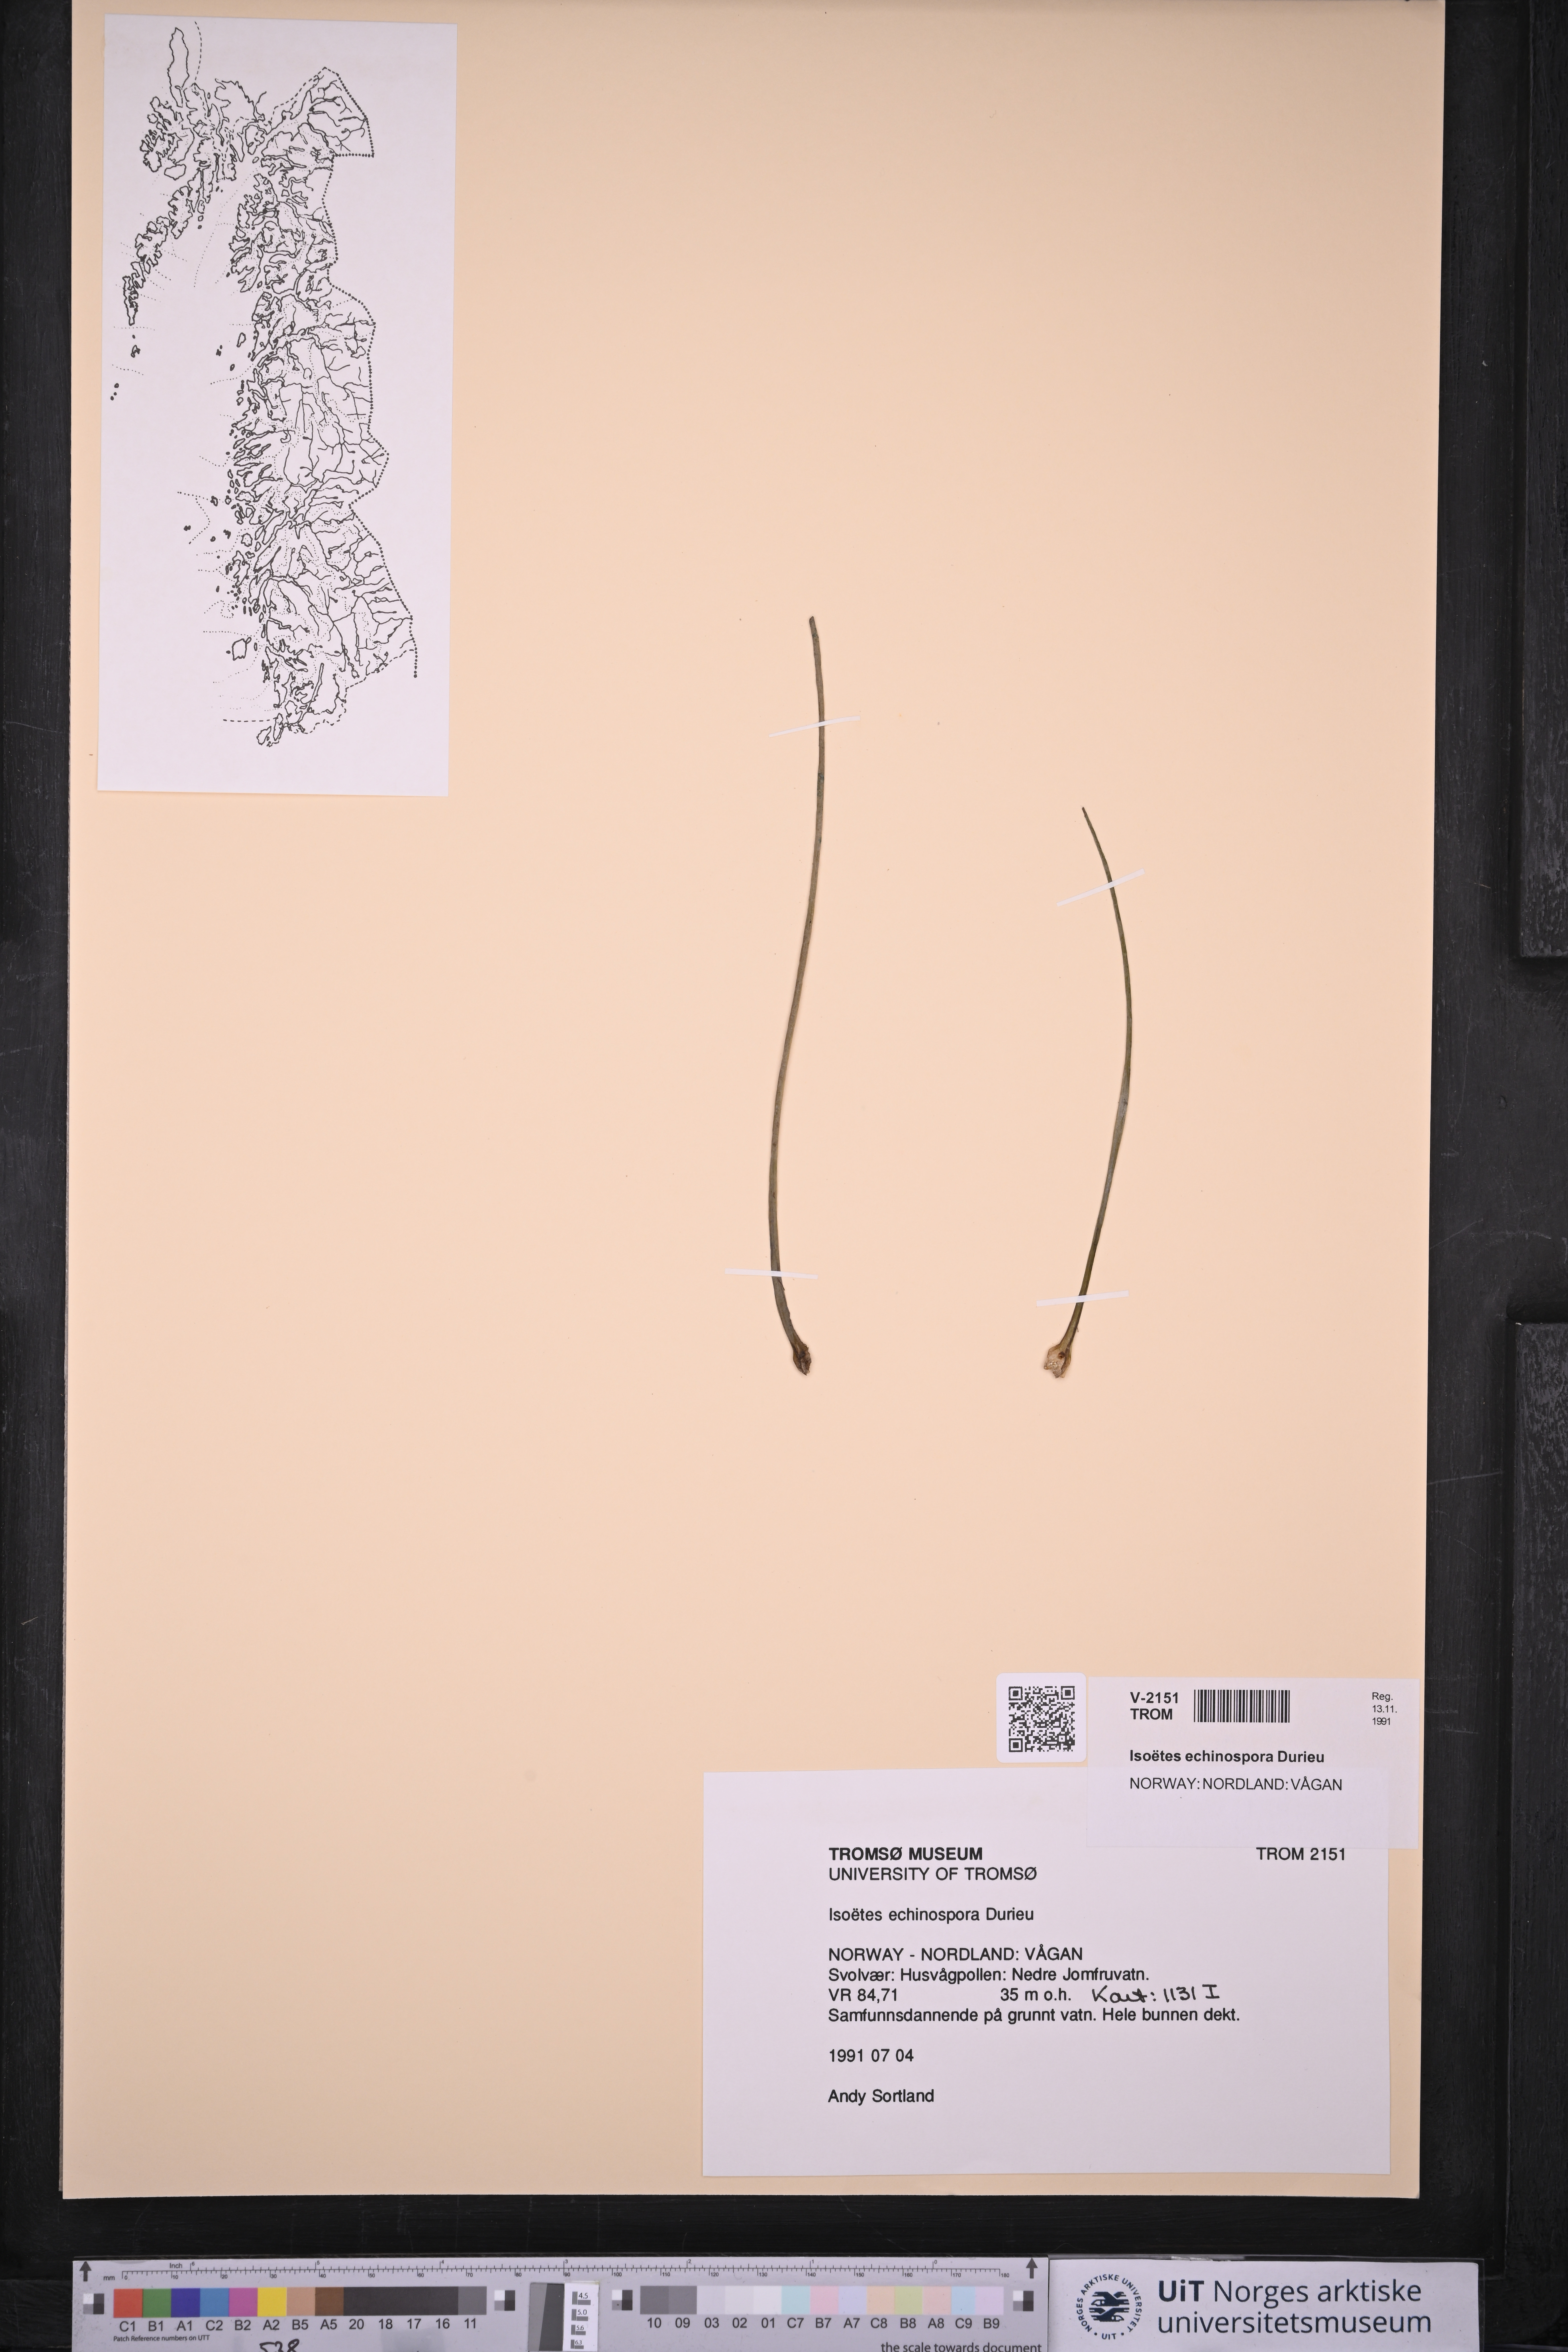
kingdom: Plantae
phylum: Tracheophyta
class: Lycopodiopsida
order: Isoetales
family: Isoetaceae
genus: Isoetes
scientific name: Isoetes echinospora
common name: Spring quillwort
